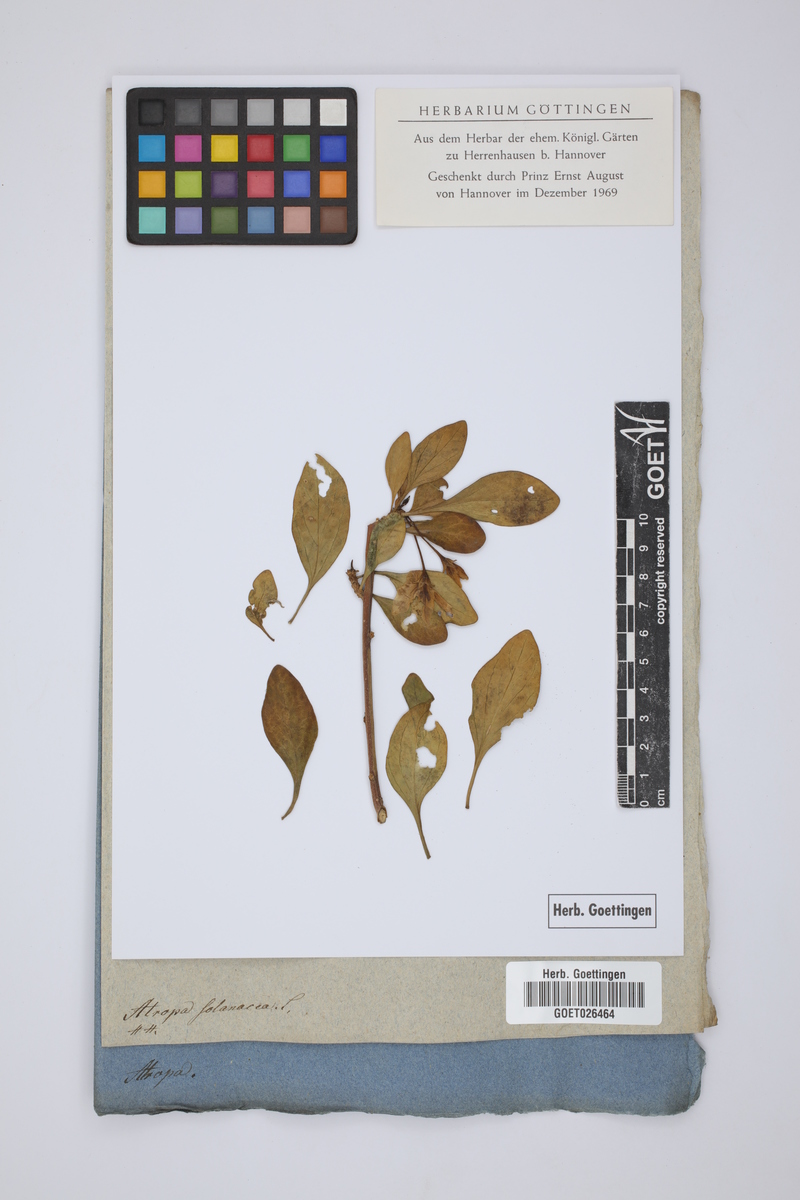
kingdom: Plantae
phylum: Tracheophyta
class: Magnoliopsida
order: Solanales
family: Solanaceae
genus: Solanum
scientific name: Solanum scabrum
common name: Garden-huckleberry
